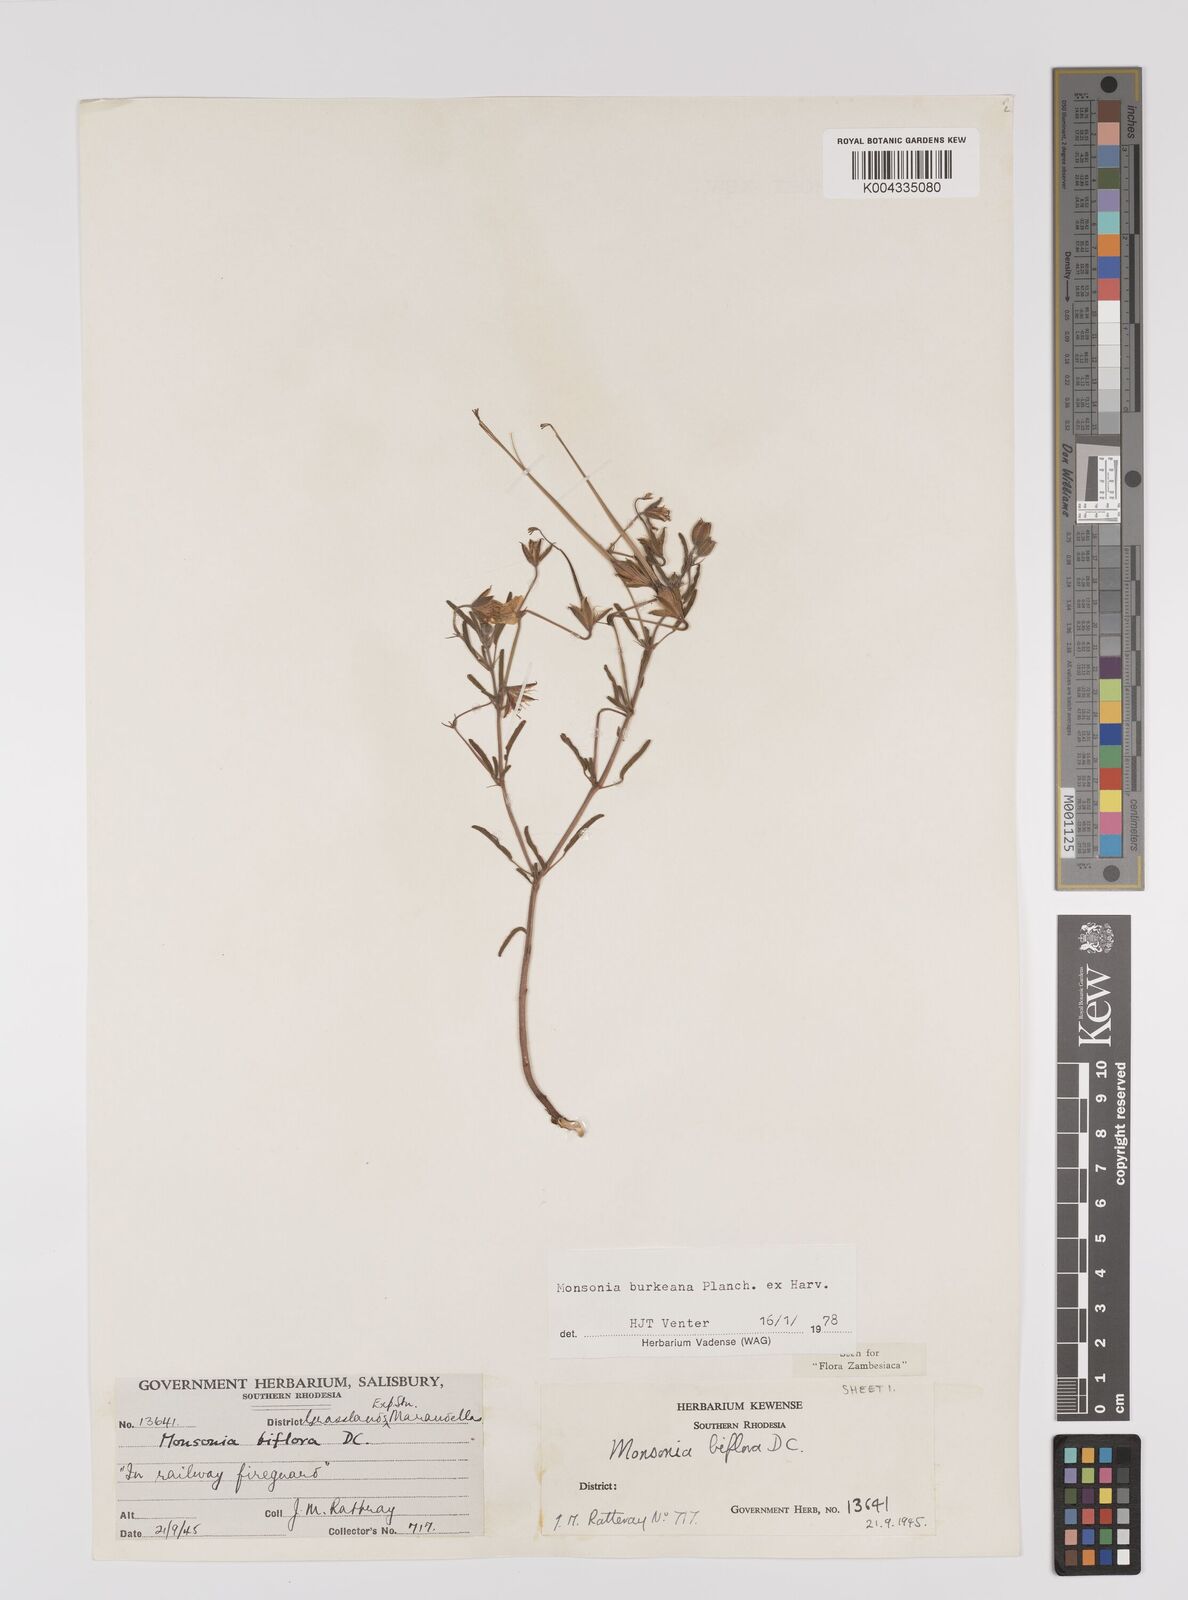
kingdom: Plantae
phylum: Tracheophyta
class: Magnoliopsida
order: Geraniales
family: Geraniaceae
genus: Monsonia
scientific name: Monsonia biflora
